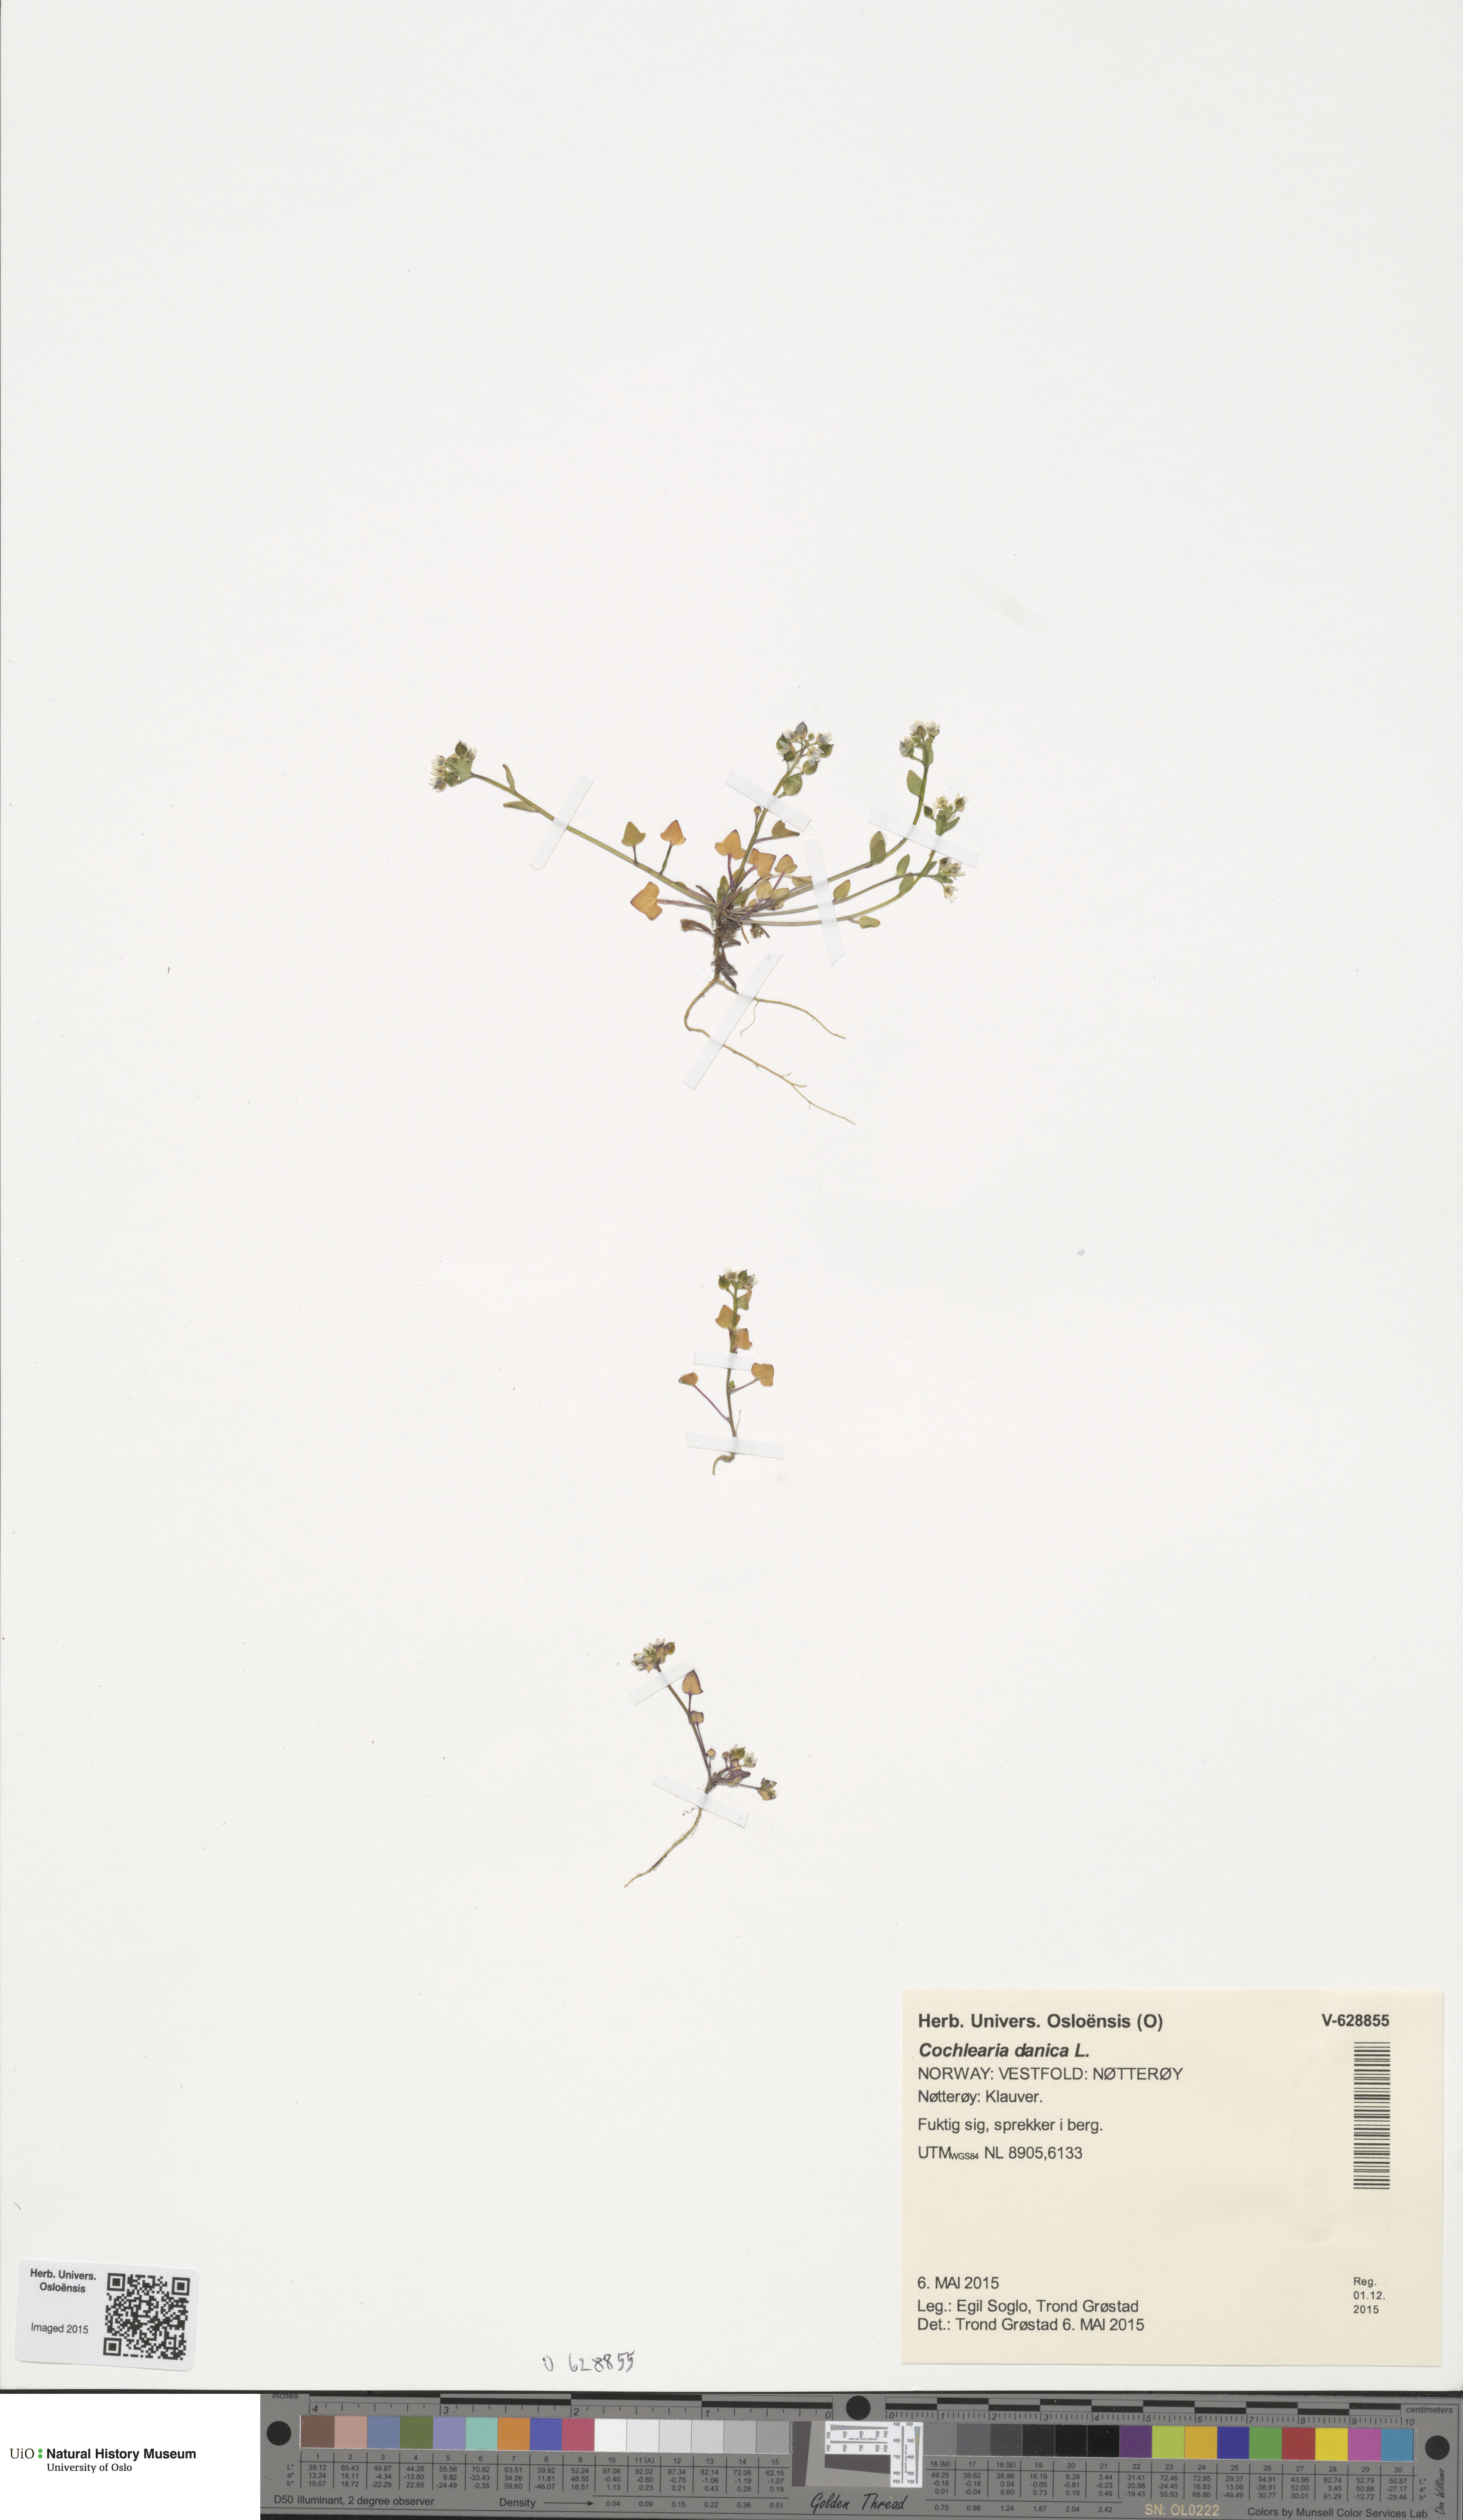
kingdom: Plantae
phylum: Tracheophyta
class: Magnoliopsida
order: Brassicales
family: Brassicaceae
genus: Cochlearia
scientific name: Cochlearia danica
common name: Early scurvygrass
